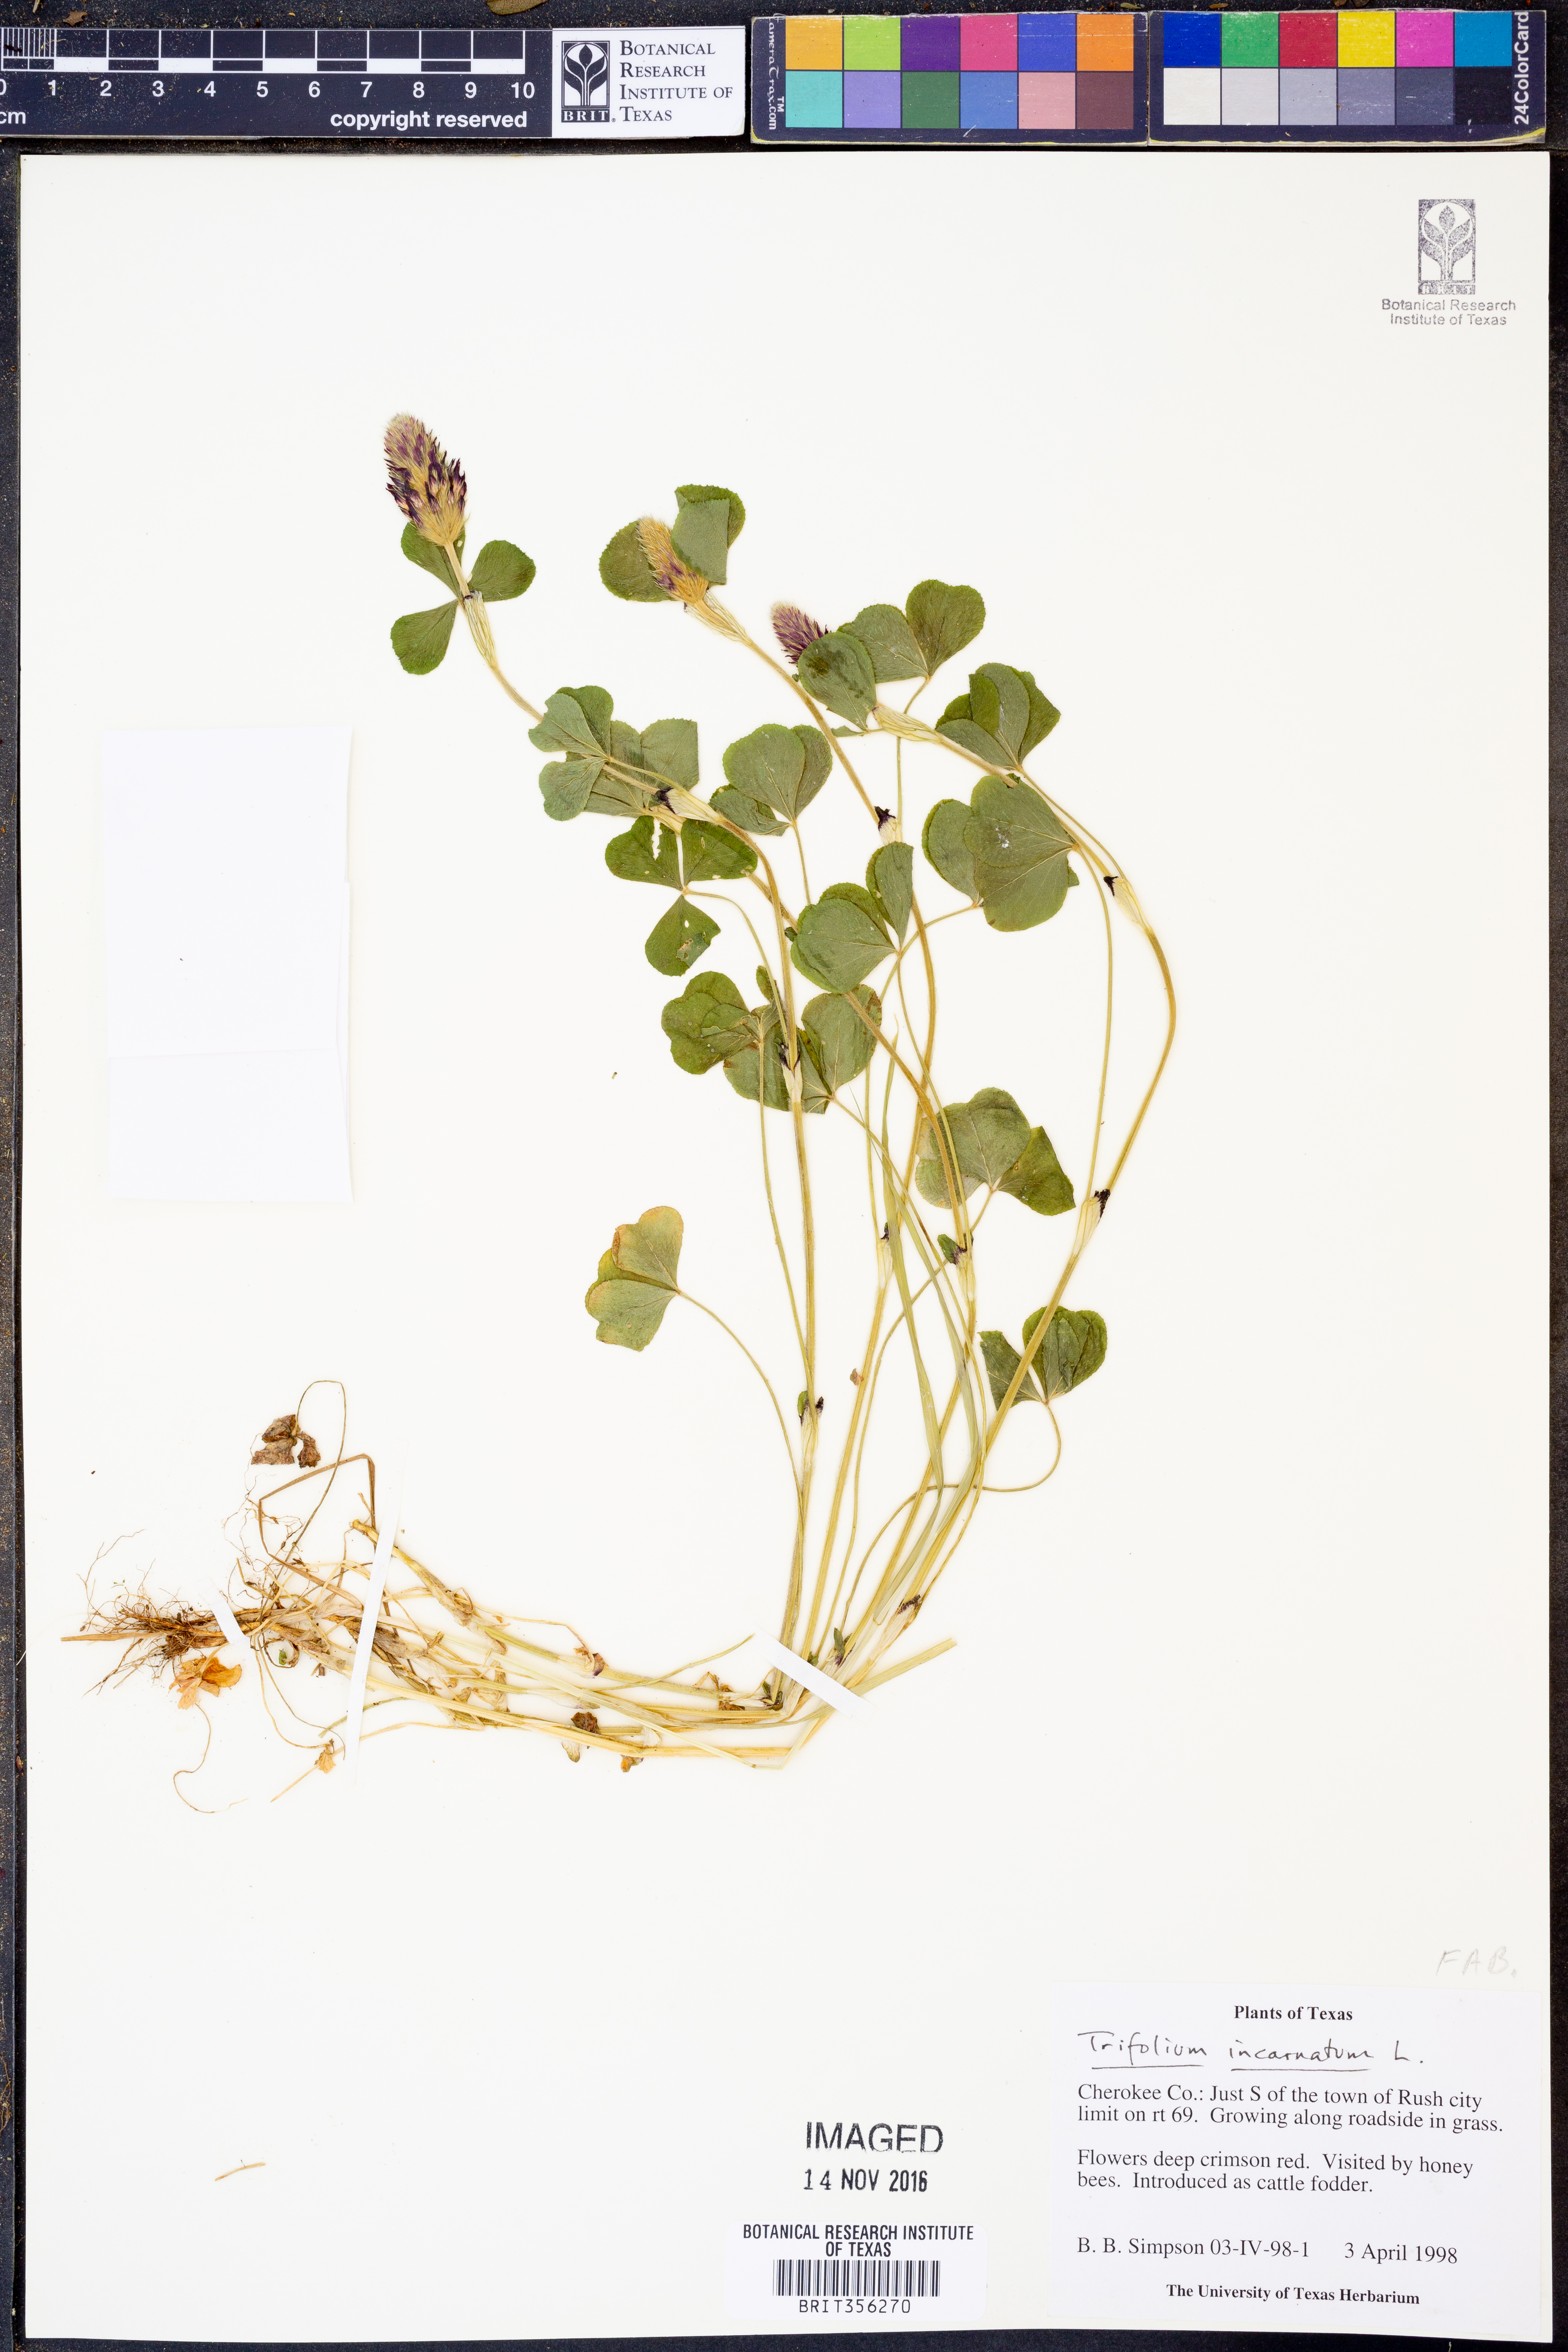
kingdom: Plantae
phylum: Tracheophyta
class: Magnoliopsida
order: Fabales
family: Fabaceae
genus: Trifolium
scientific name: Trifolium incarnatum
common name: Crimson clover
